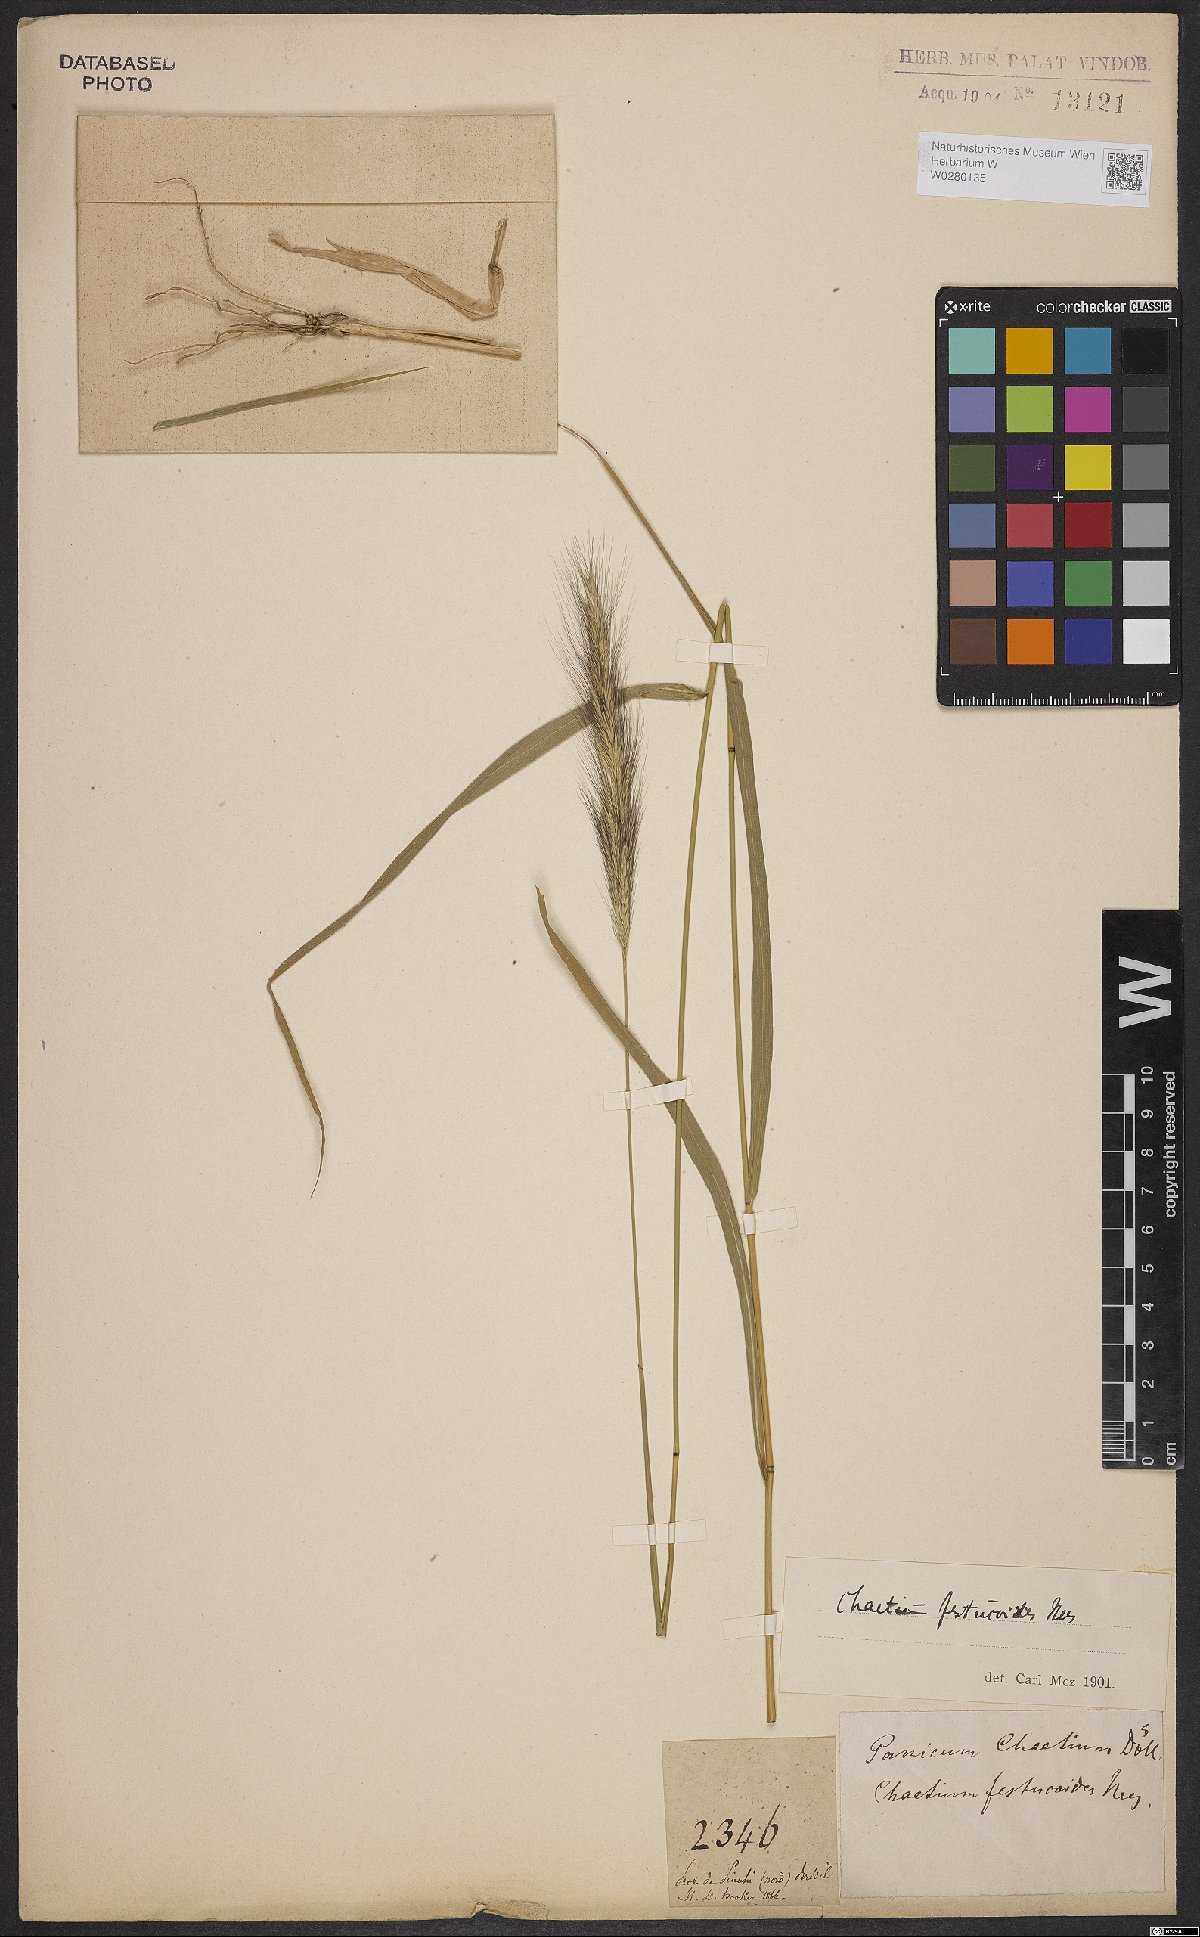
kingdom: Plantae
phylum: Tracheophyta
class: Liliopsida
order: Poales
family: Poaceae
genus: Chaetium
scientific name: Chaetium festucoides
